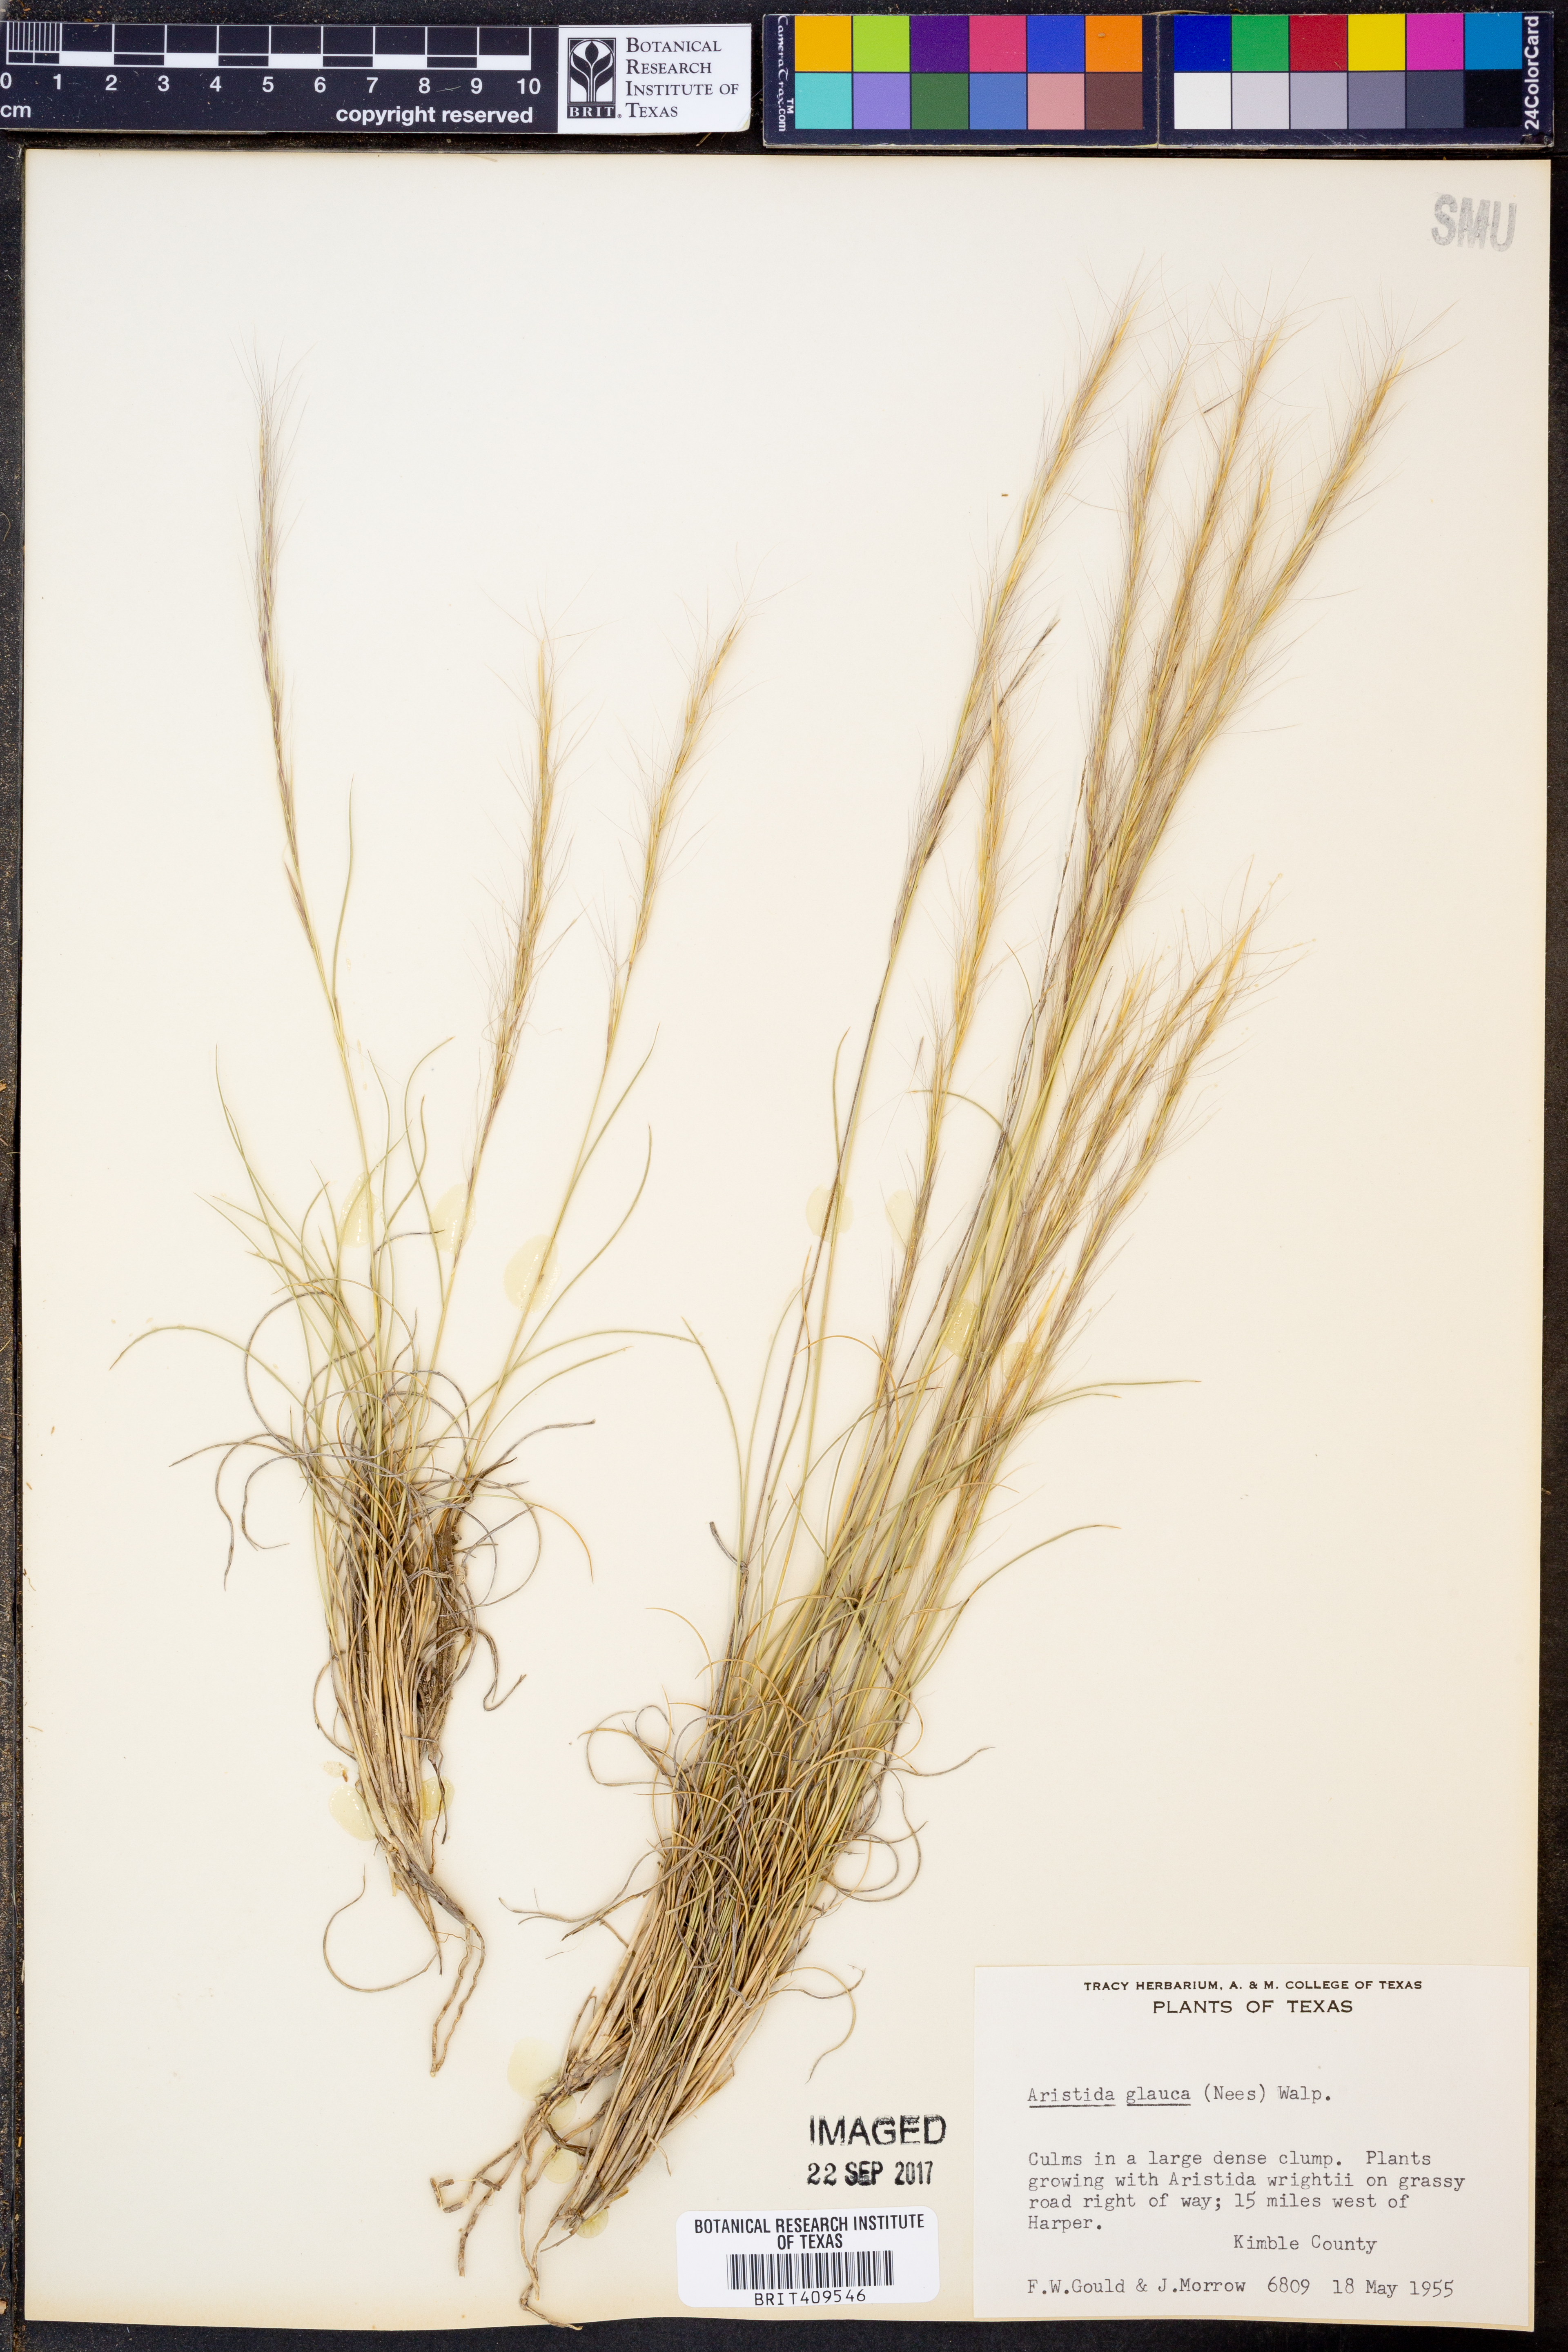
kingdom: Plantae
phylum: Tracheophyta
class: Liliopsida
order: Poales
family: Poaceae
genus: Aristida
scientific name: Aristida glauca
